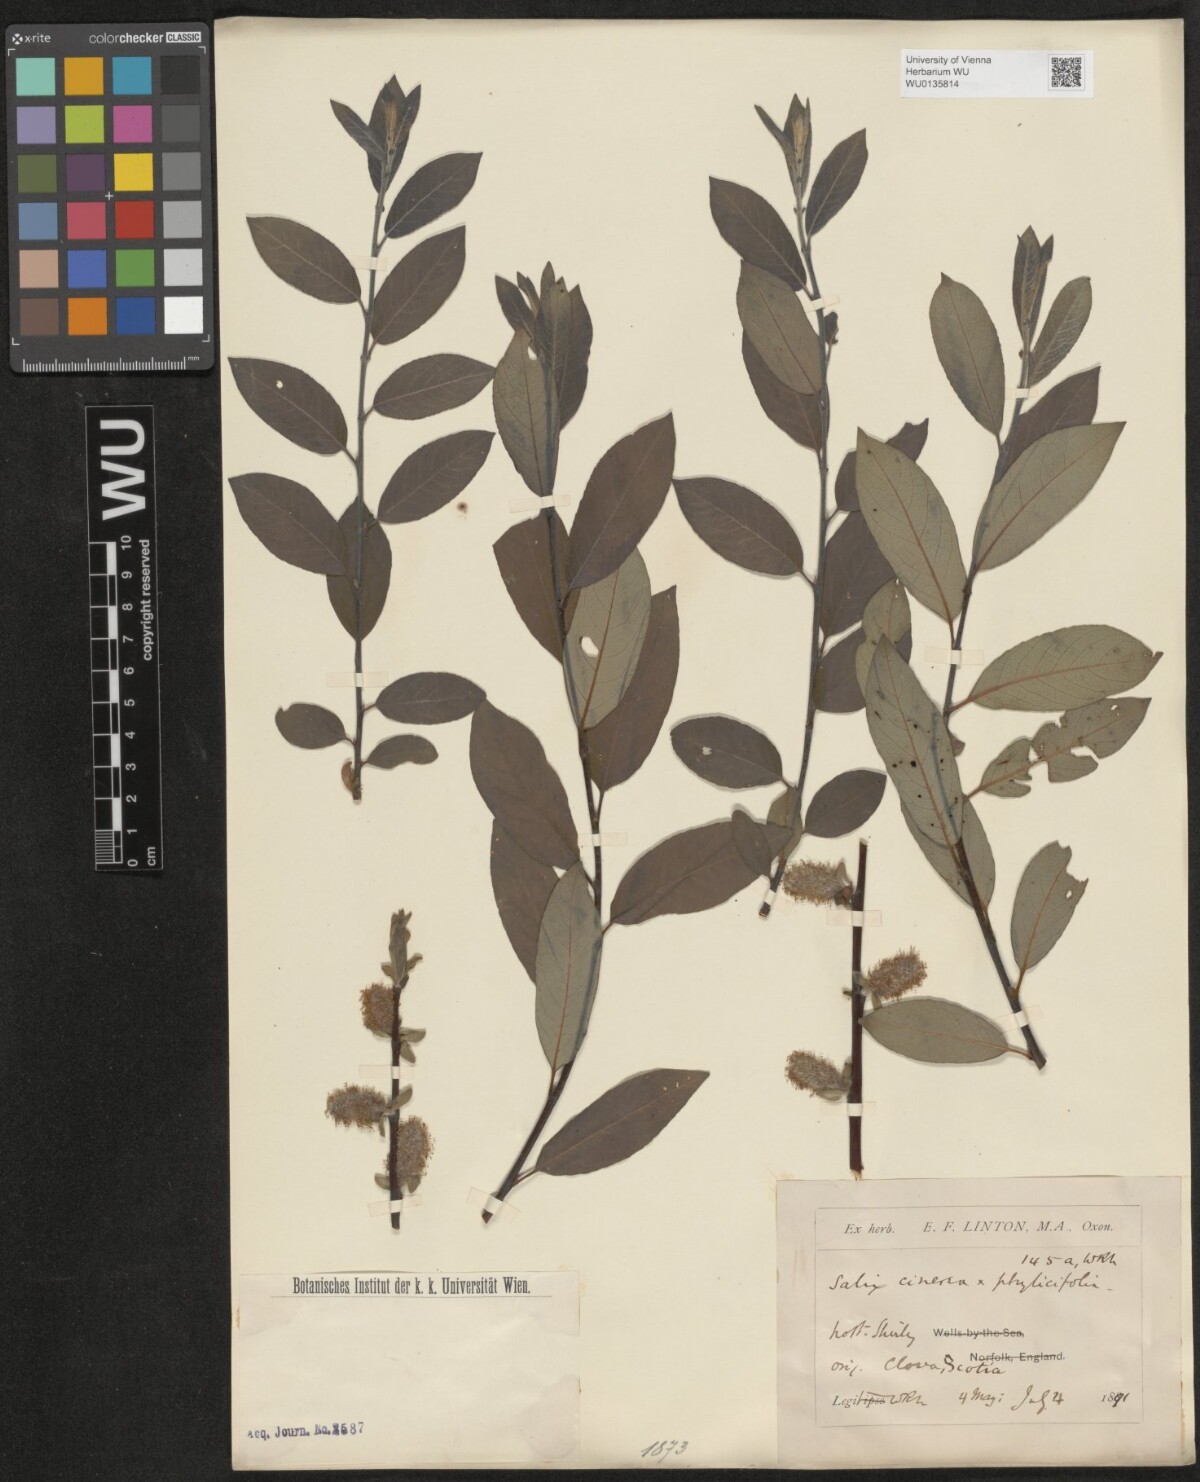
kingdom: Plantae
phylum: Tracheophyta
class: Magnoliopsida
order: Malpighiales
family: Salicaceae
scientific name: Salicaceae
